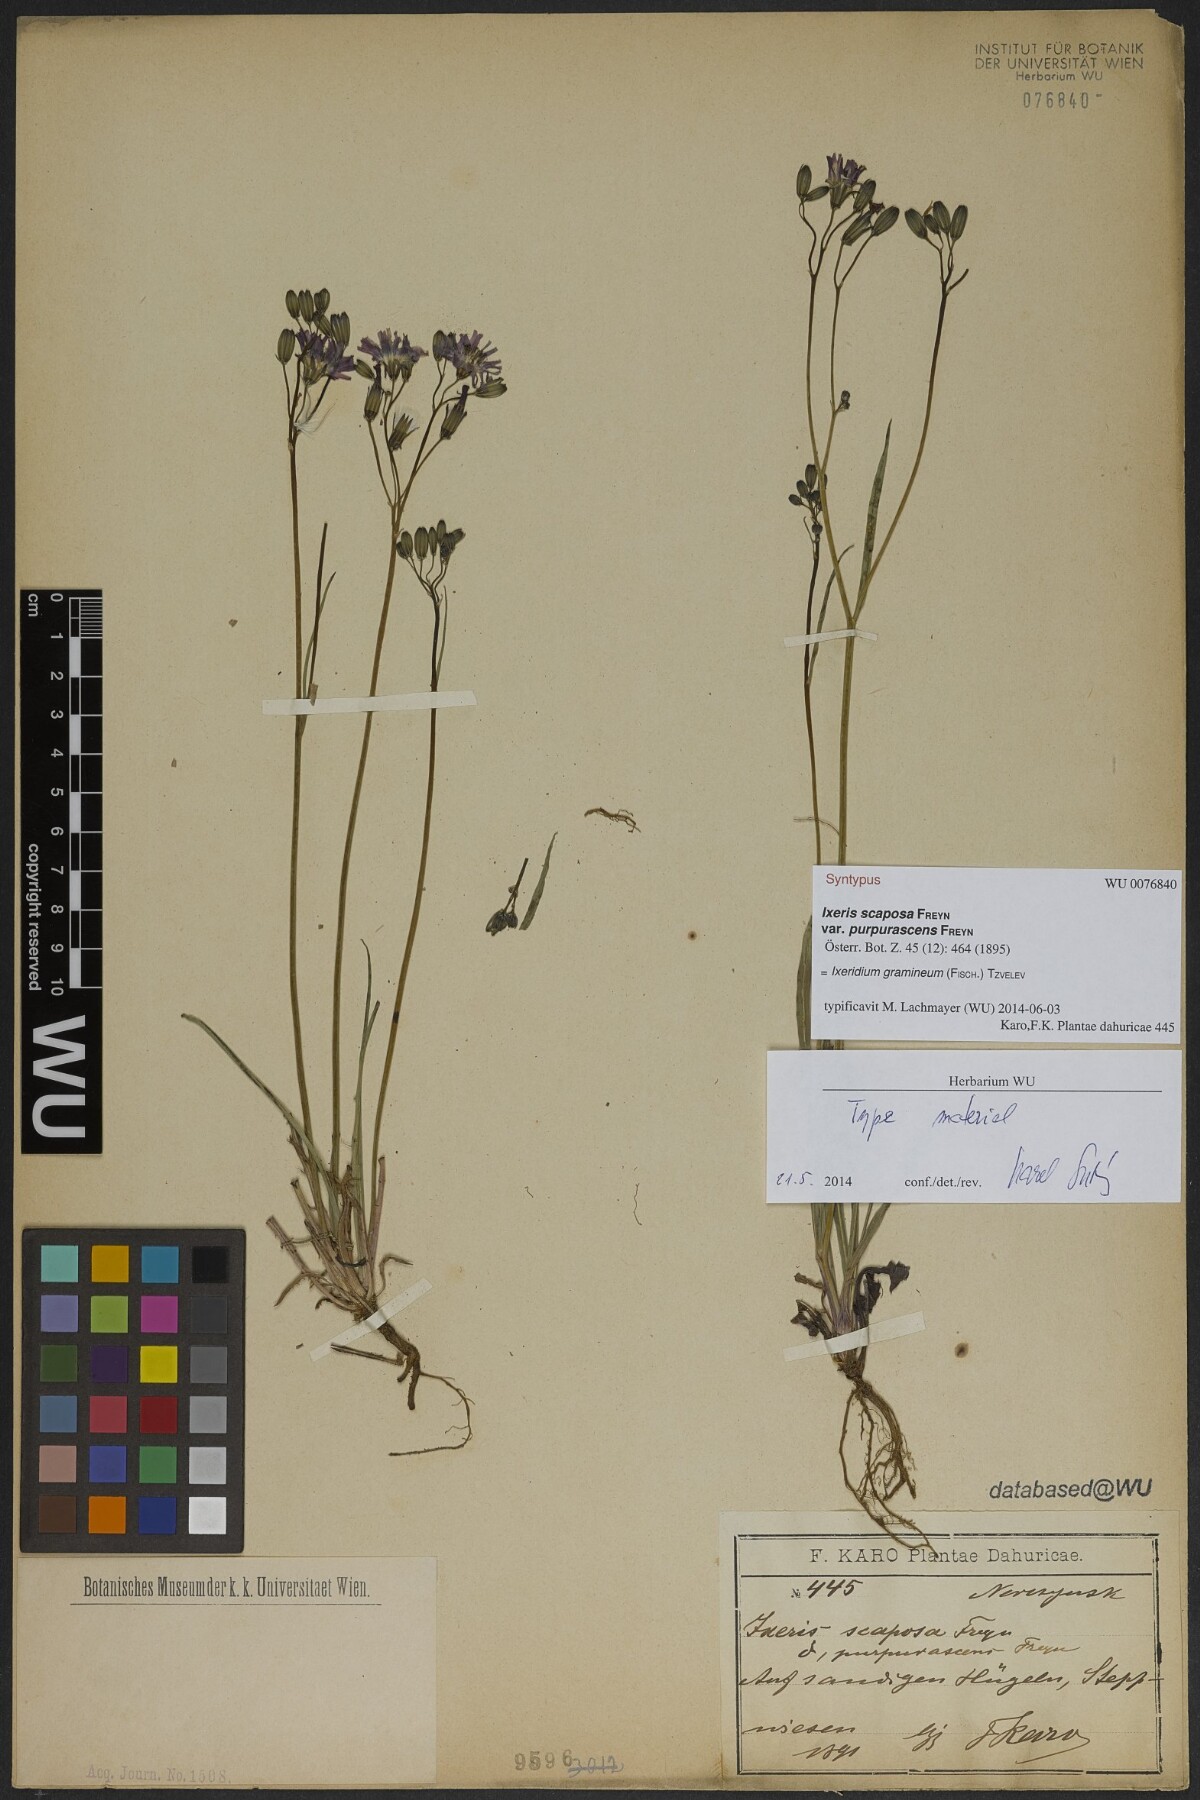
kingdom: Plantae
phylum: Tracheophyta
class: Magnoliopsida
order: Asterales
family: Asteraceae
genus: Ixeris
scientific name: Ixeris chinensis
